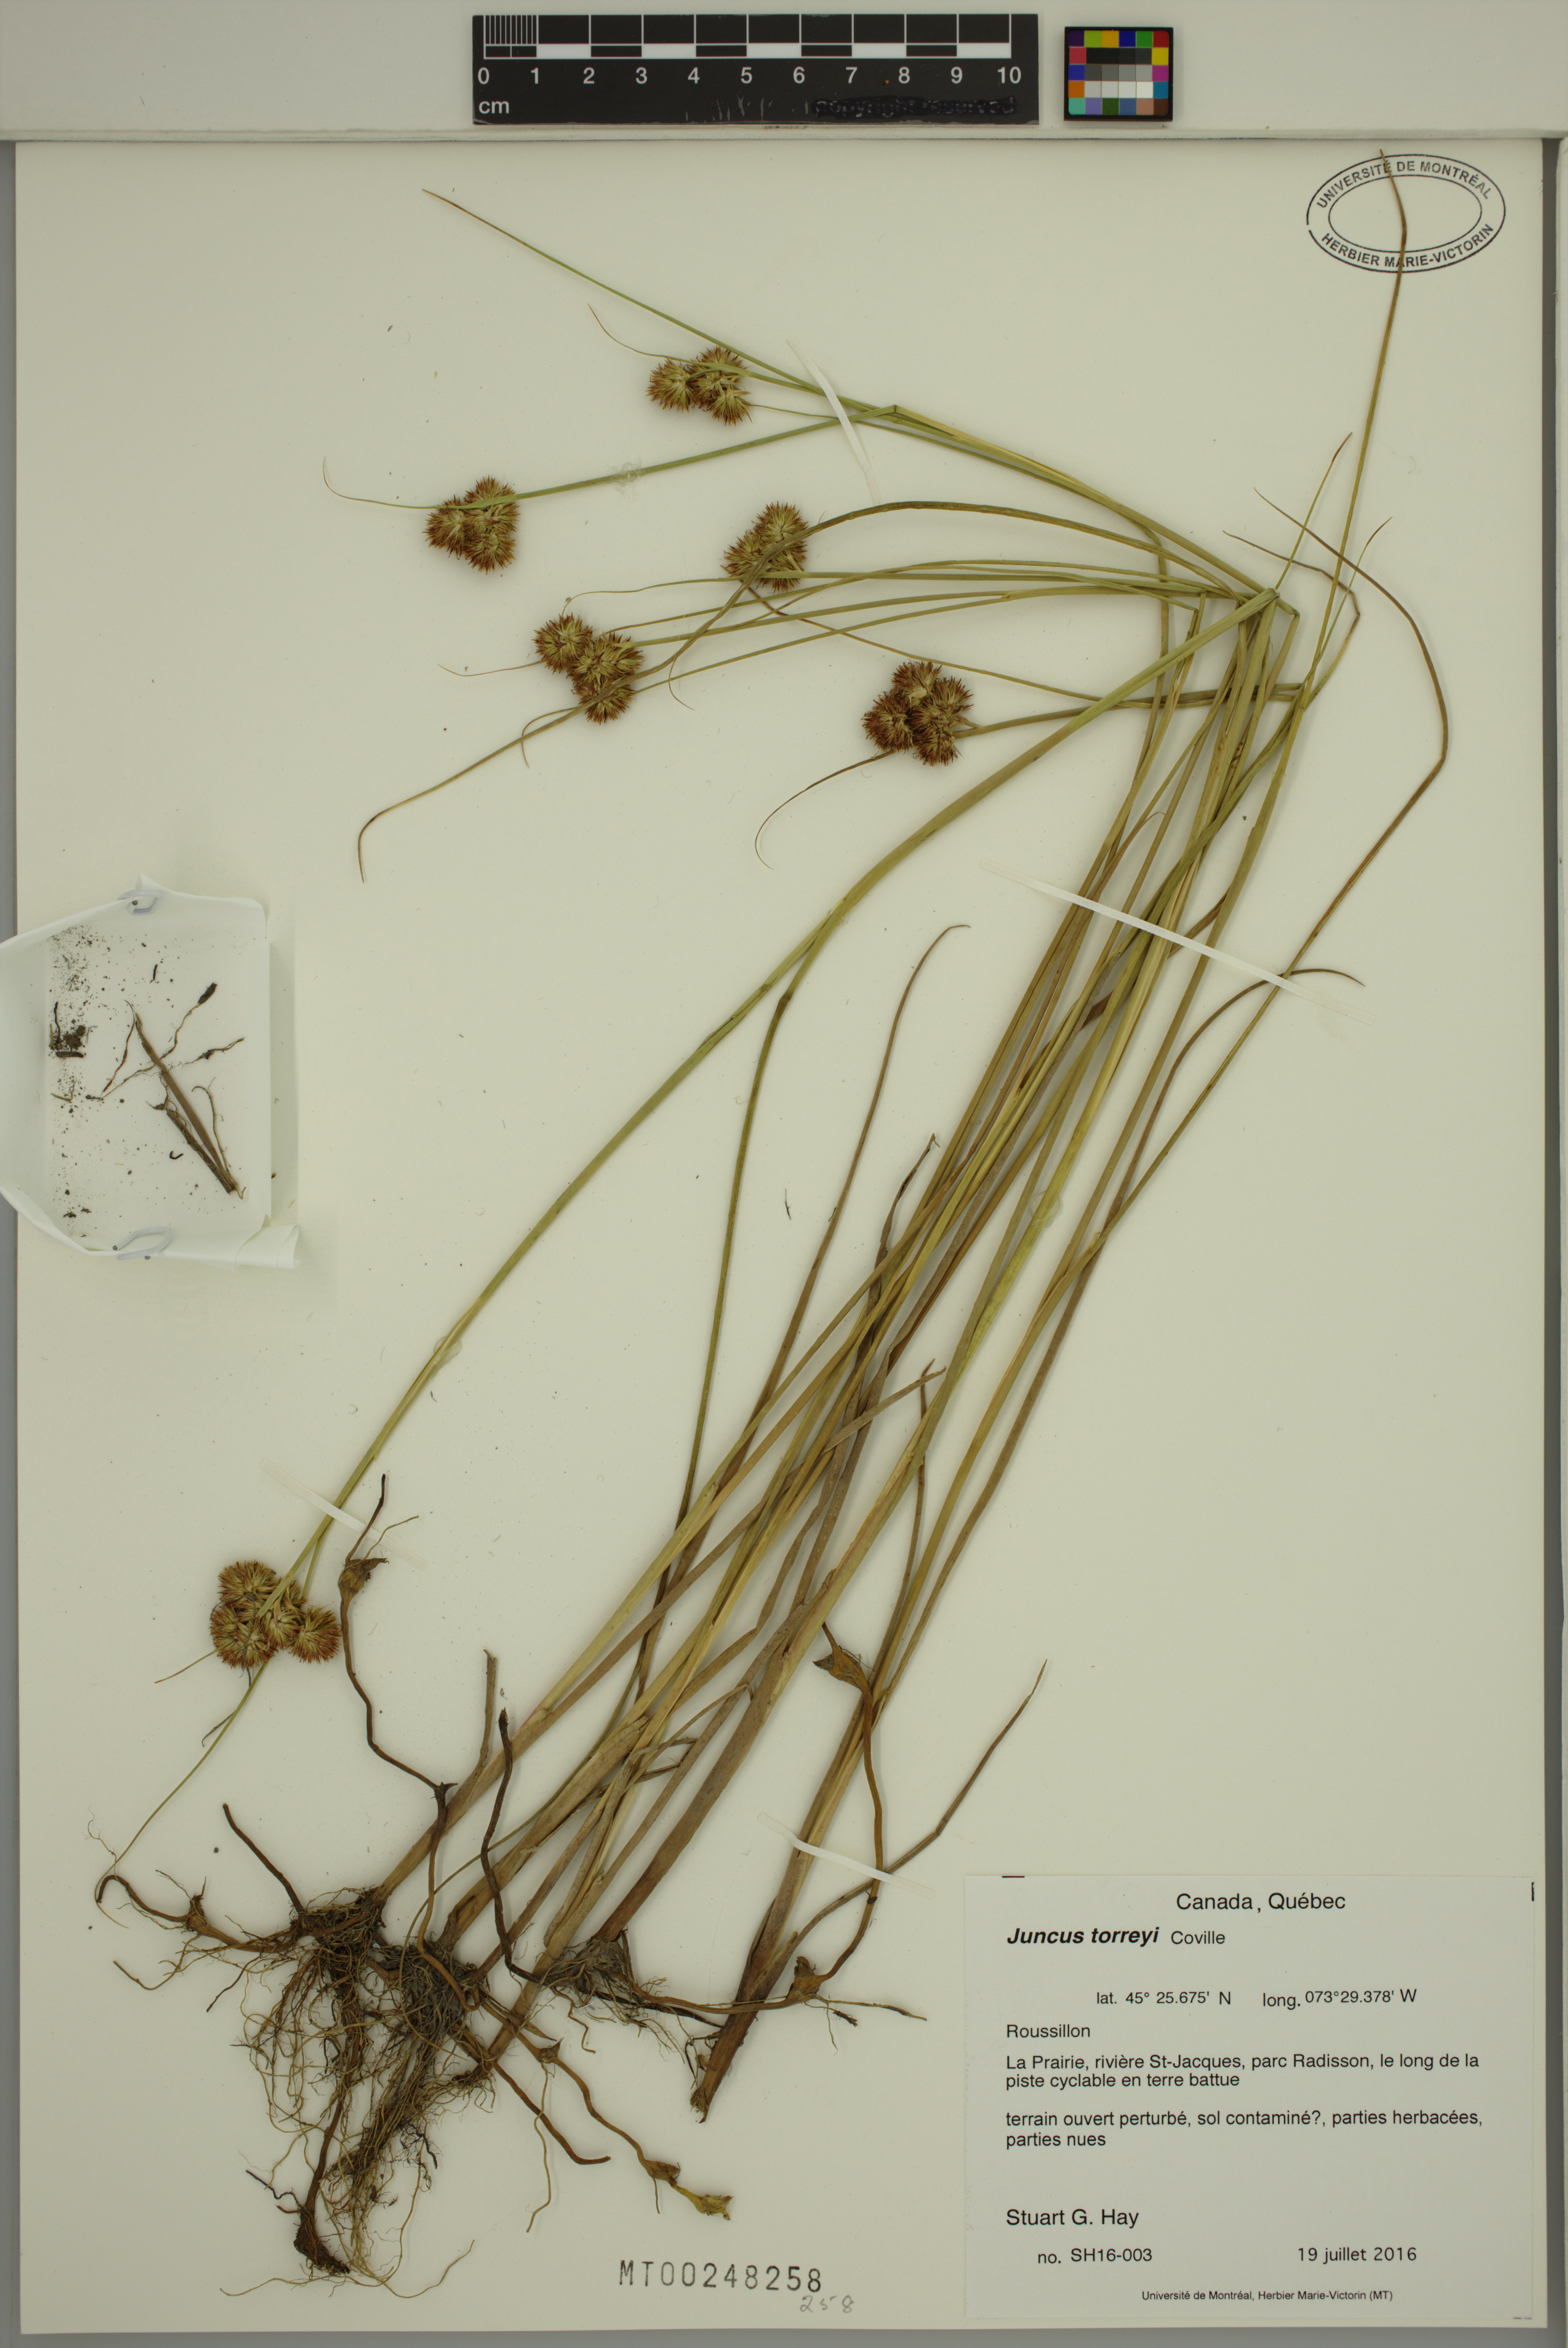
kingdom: Plantae
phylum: Tracheophyta
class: Liliopsida
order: Poales
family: Juncaceae
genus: Juncus
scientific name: Juncus torreyi
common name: Torrey's rush
